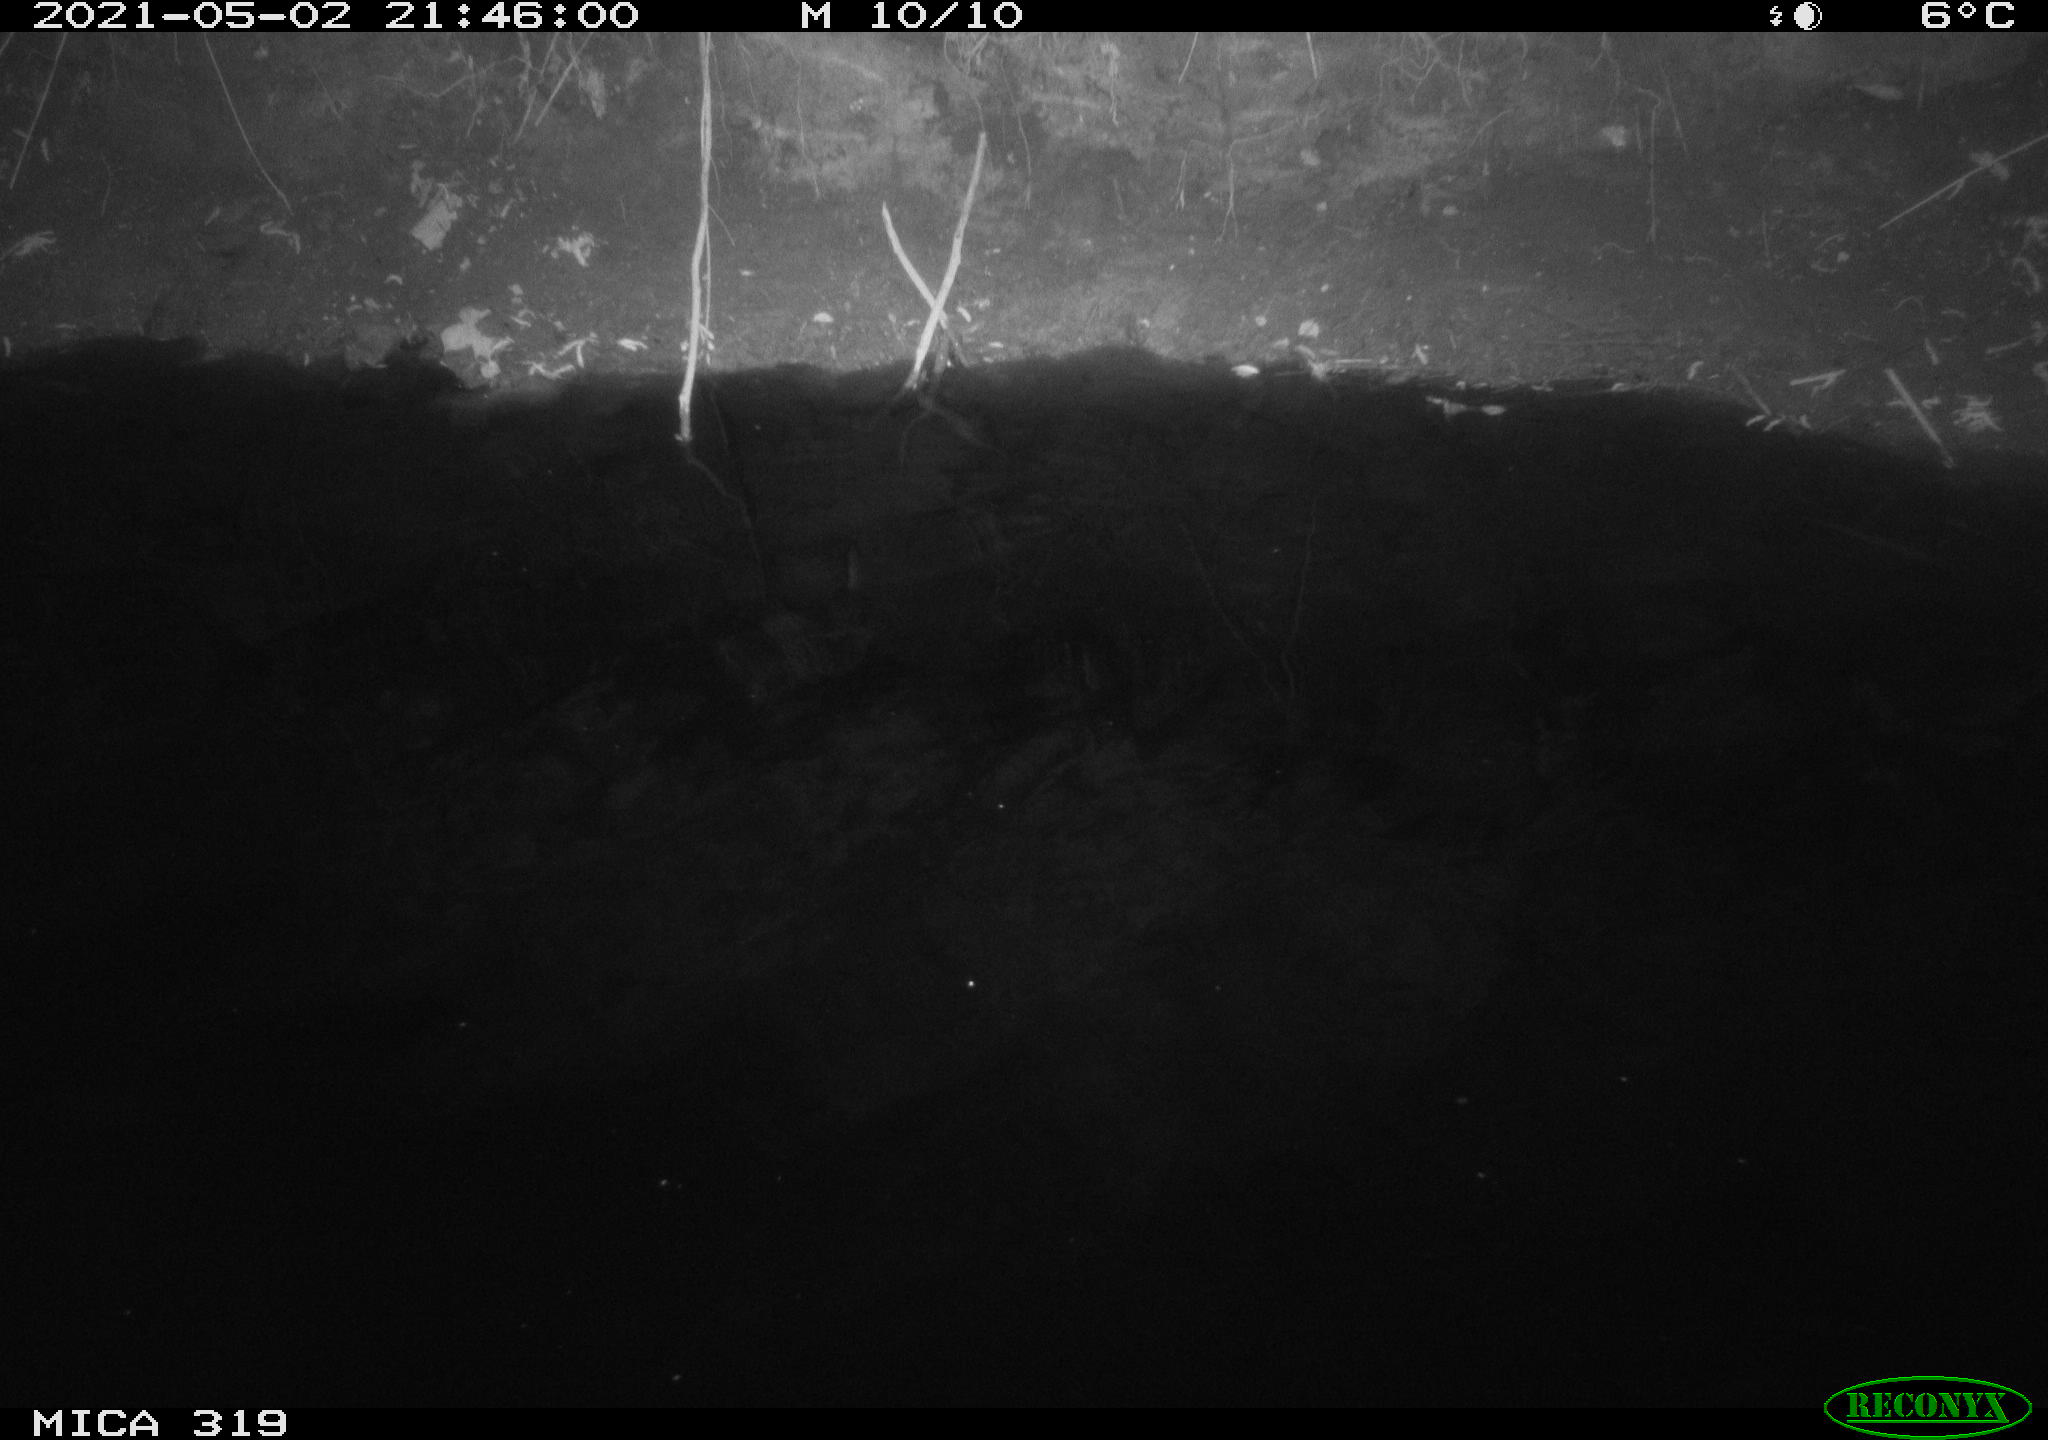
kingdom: Animalia
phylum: Chordata
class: Aves
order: Anseriformes
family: Anatidae
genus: Anas
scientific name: Anas platyrhynchos
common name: Mallard
